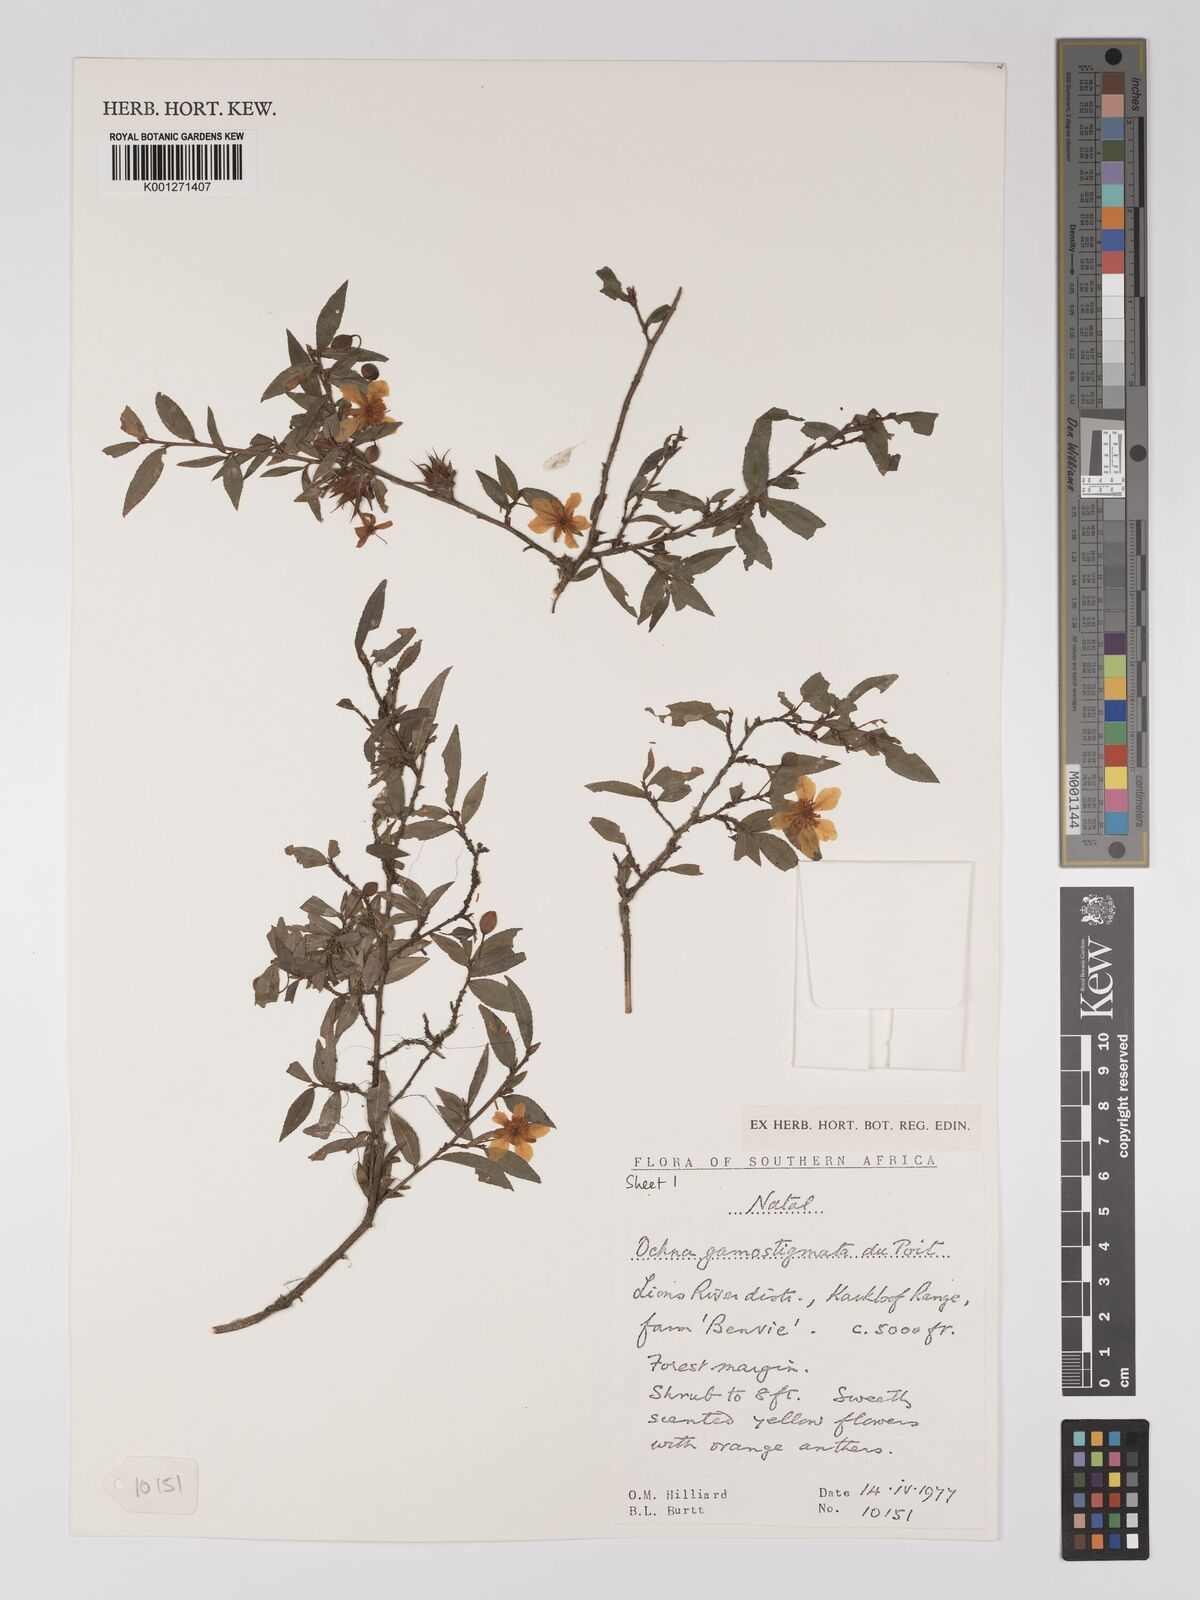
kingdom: Plantae
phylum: Tracheophyta
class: Magnoliopsida
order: Malpighiales
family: Ochnaceae
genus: Ochna
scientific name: Ochna gamostigmata
